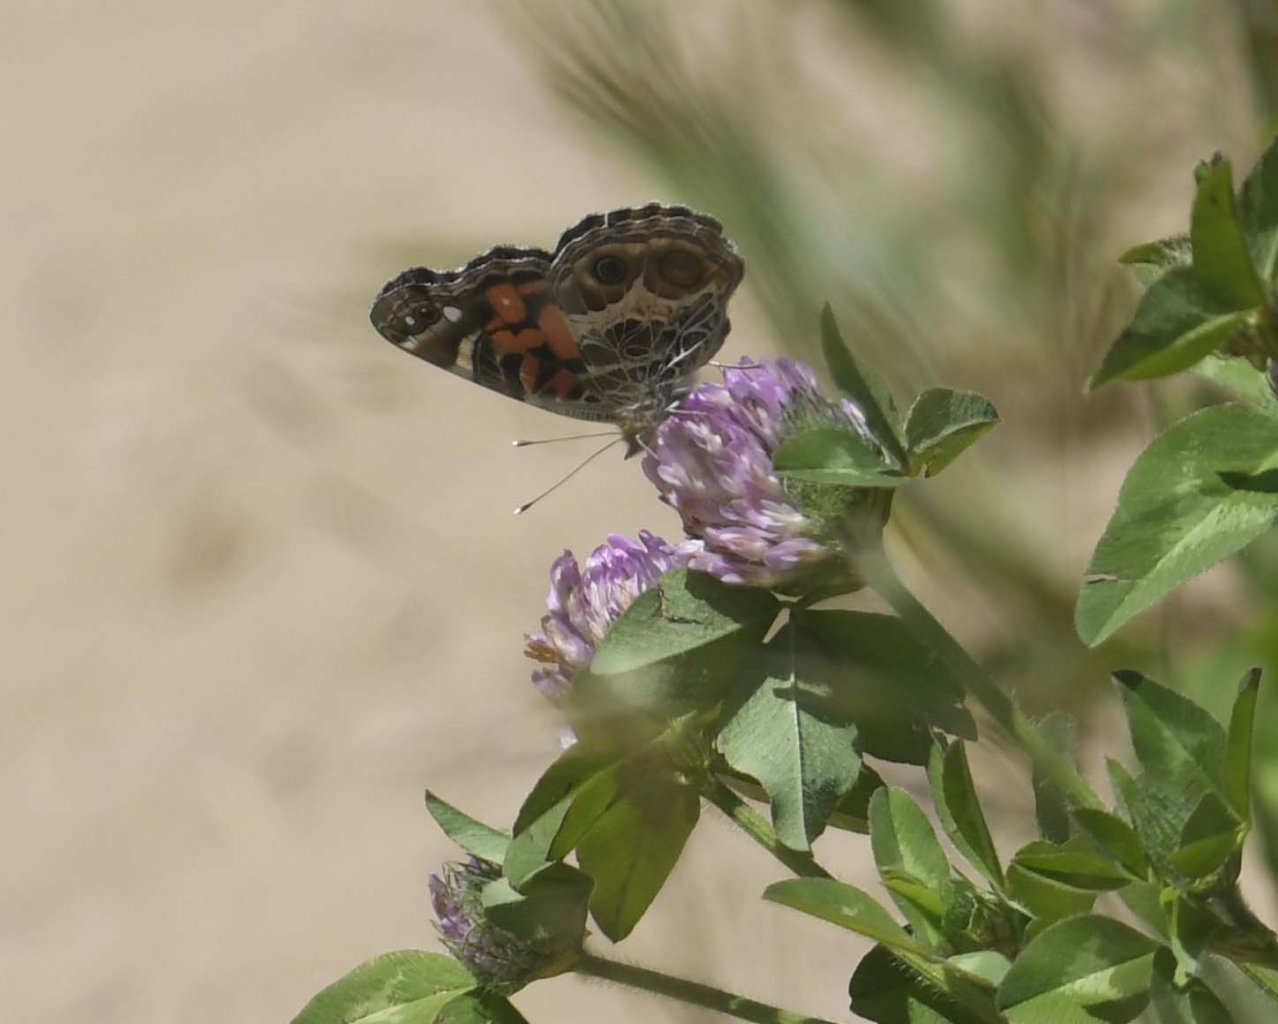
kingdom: Animalia
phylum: Arthropoda
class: Insecta
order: Lepidoptera
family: Nymphalidae
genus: Vanessa
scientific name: Vanessa virginiensis
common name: American Lady
